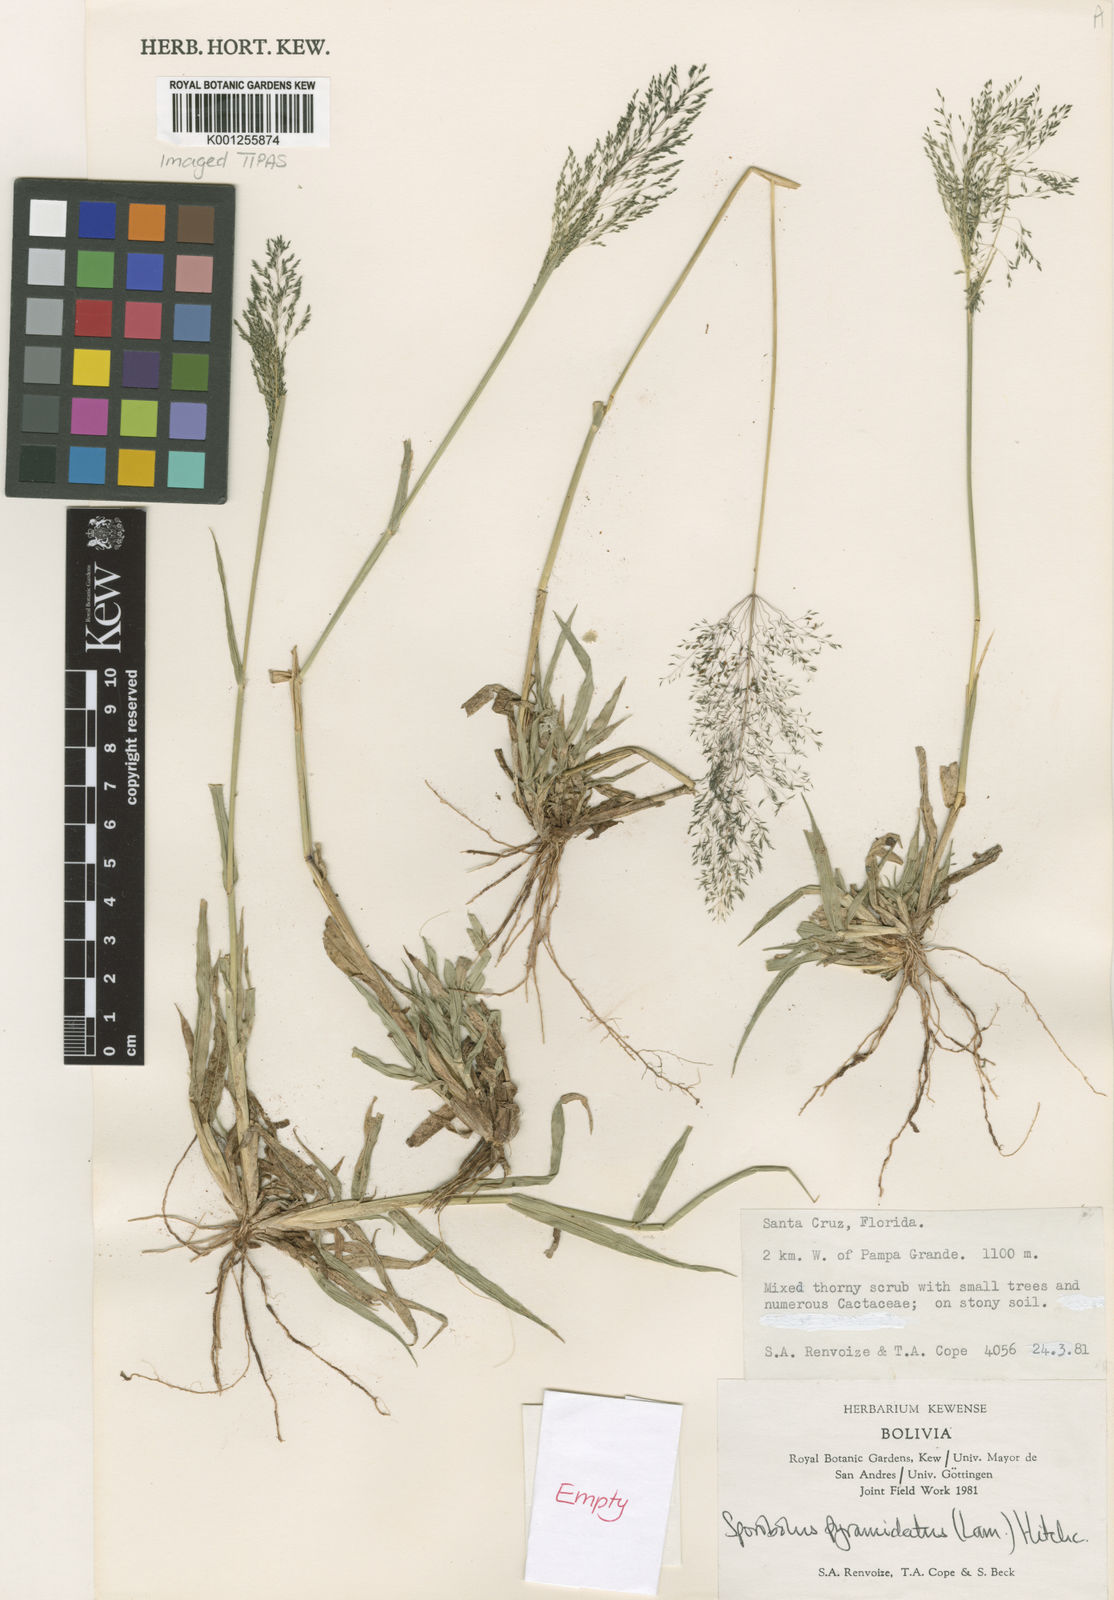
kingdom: Plantae
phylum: Tracheophyta
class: Liliopsida
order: Poales
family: Poaceae
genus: Sporobolus
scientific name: Sporobolus pyramidatus
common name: Whorled dropseed
